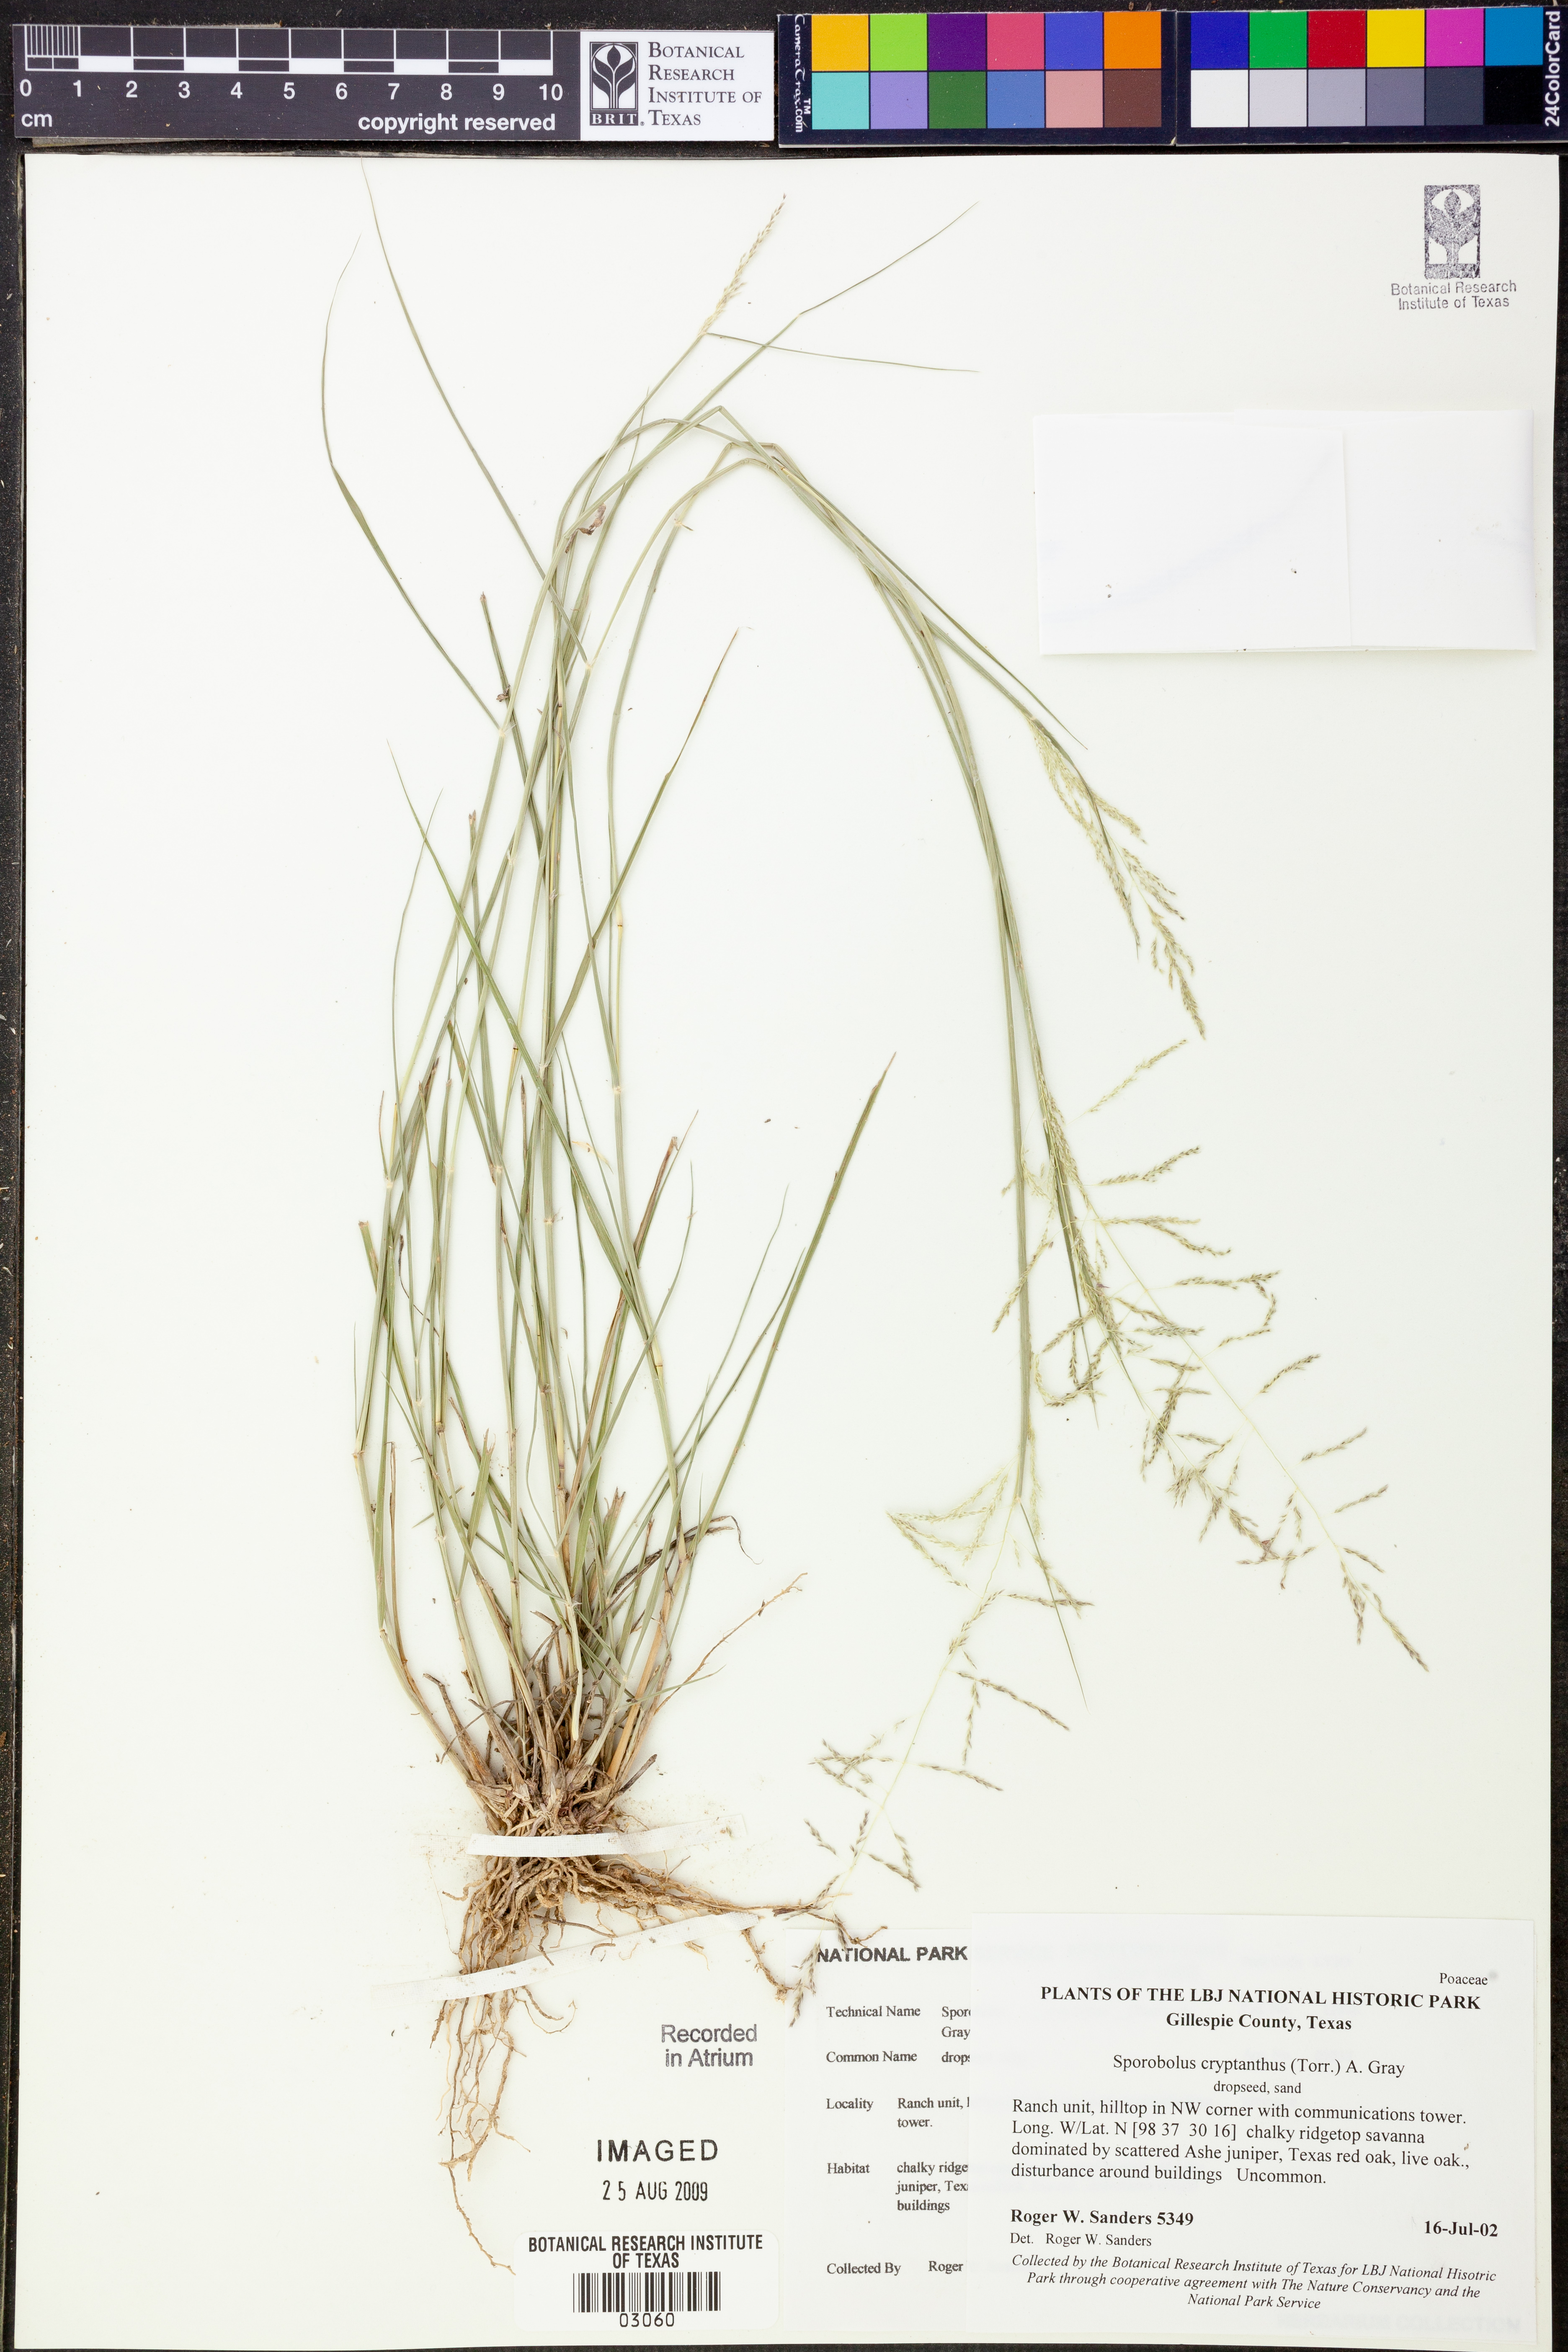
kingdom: Plantae
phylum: Tracheophyta
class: Liliopsida
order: Poales
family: Poaceae
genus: Sporobolus
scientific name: Sporobolus cryptandrus
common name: Sand dropseed
